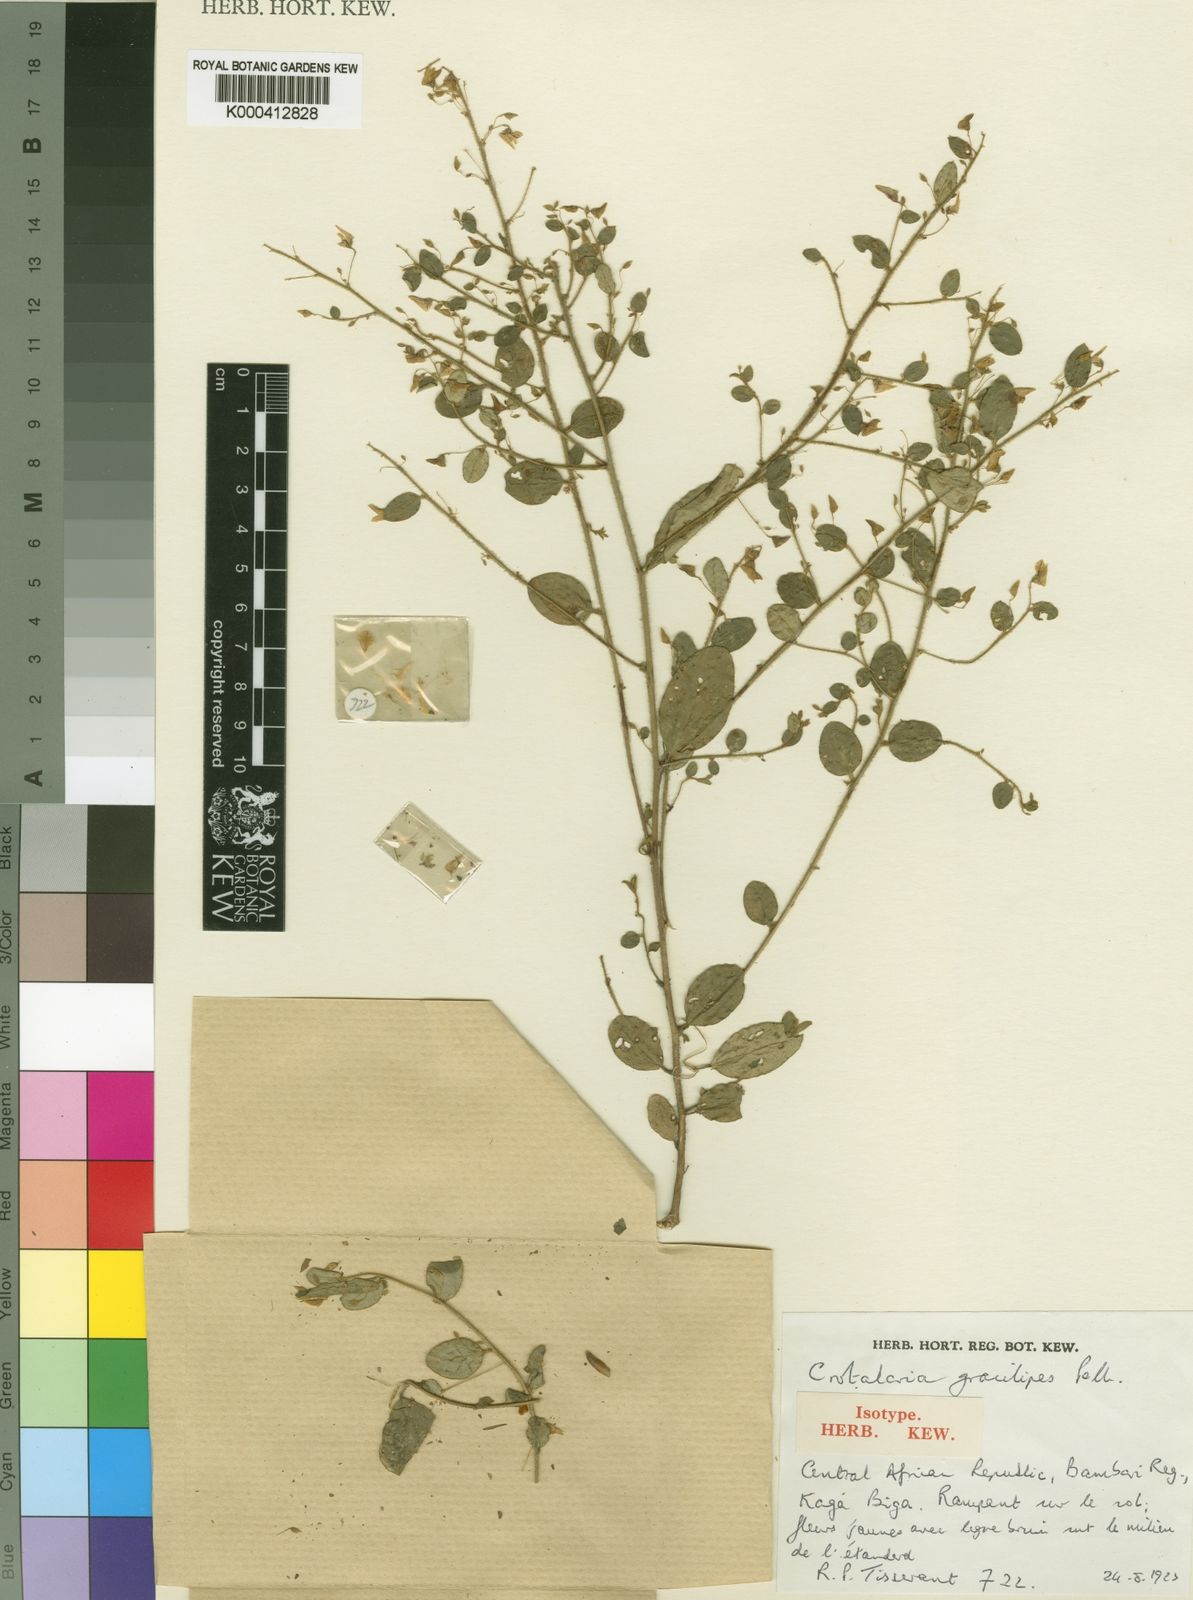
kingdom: Plantae
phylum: Tracheophyta
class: Magnoliopsida
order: Fabales
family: Fabaceae
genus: Crotalaria
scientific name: Crotalaria
